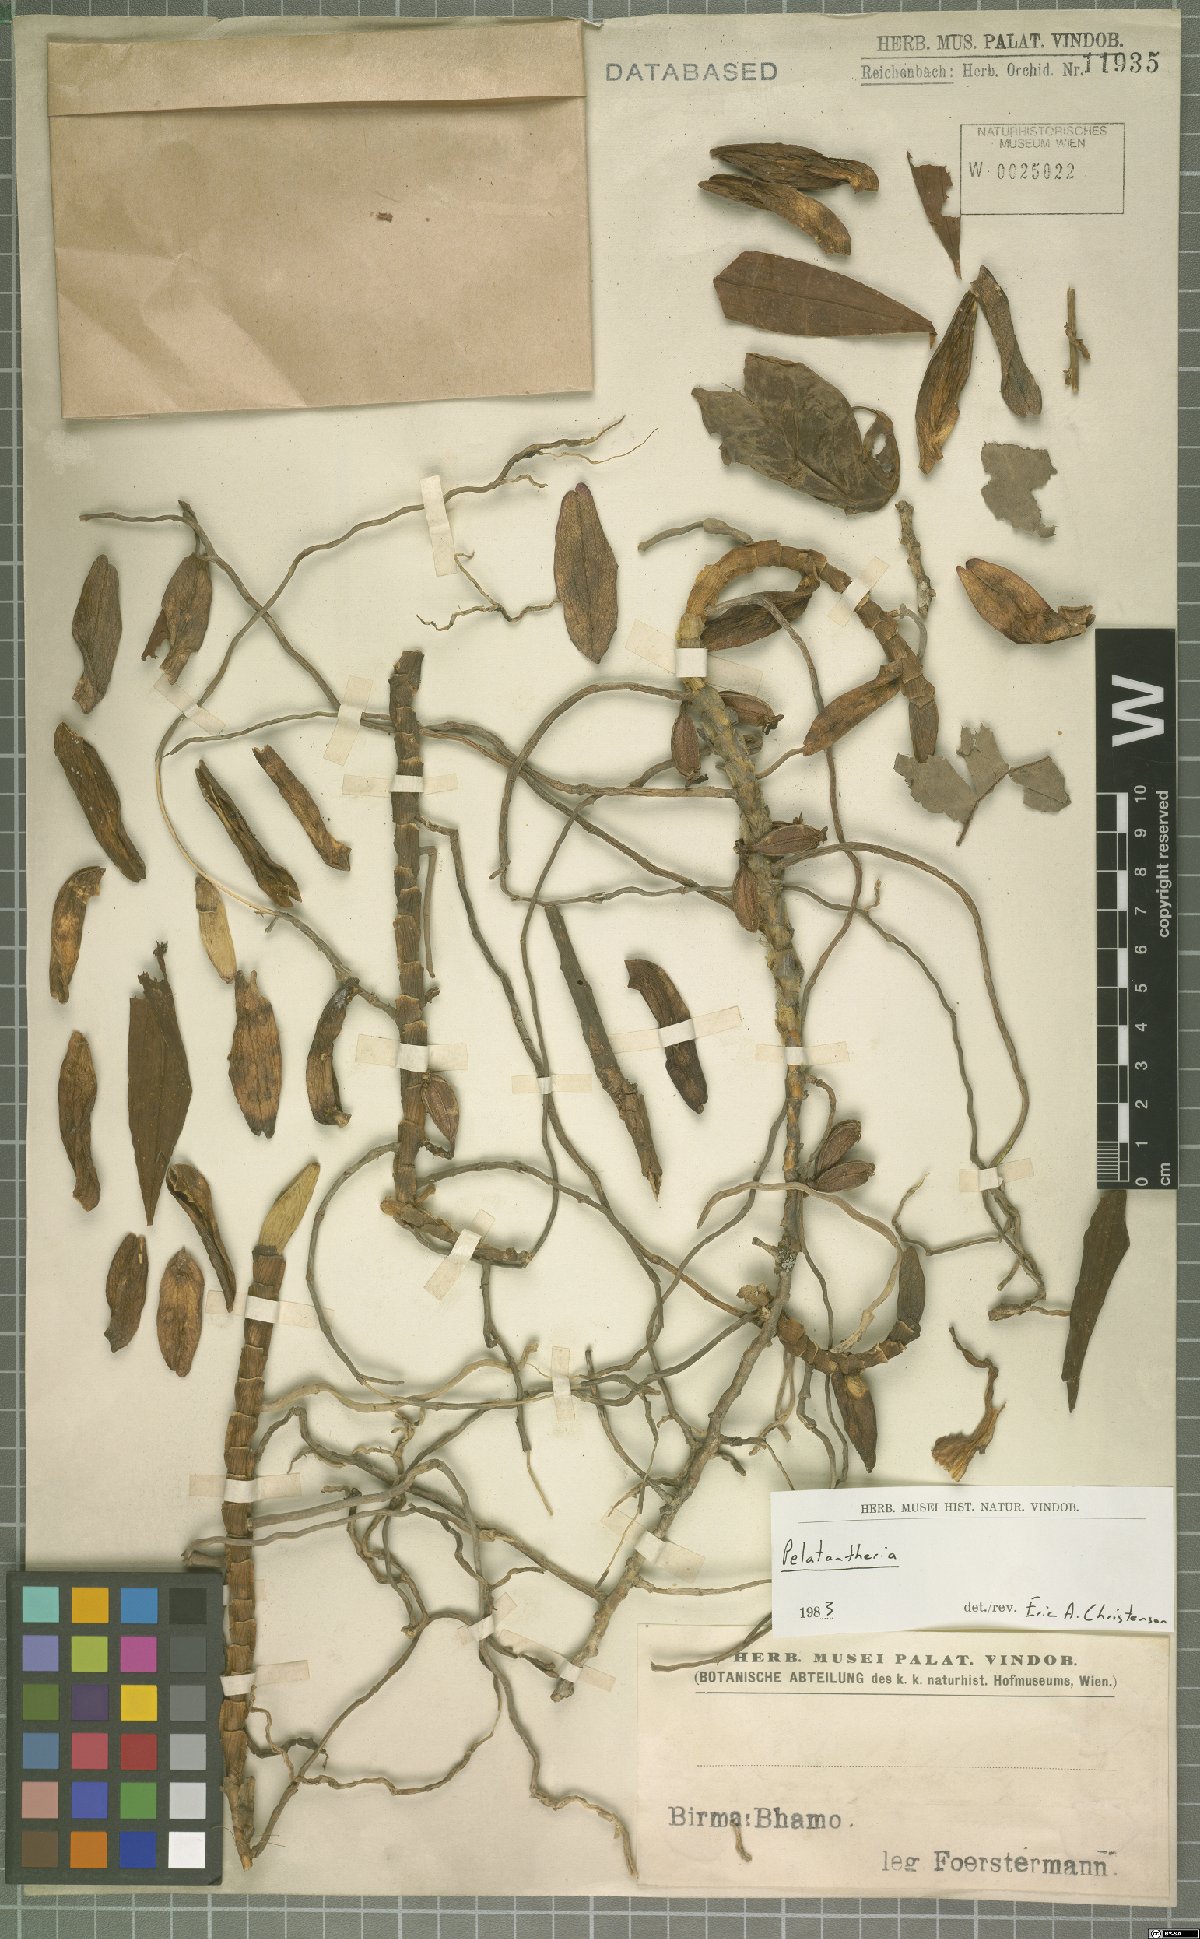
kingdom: Plantae
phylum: Tracheophyta
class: Liliopsida
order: Asparagales
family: Orchidaceae
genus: Pelatantheria
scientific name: Pelatantheria
